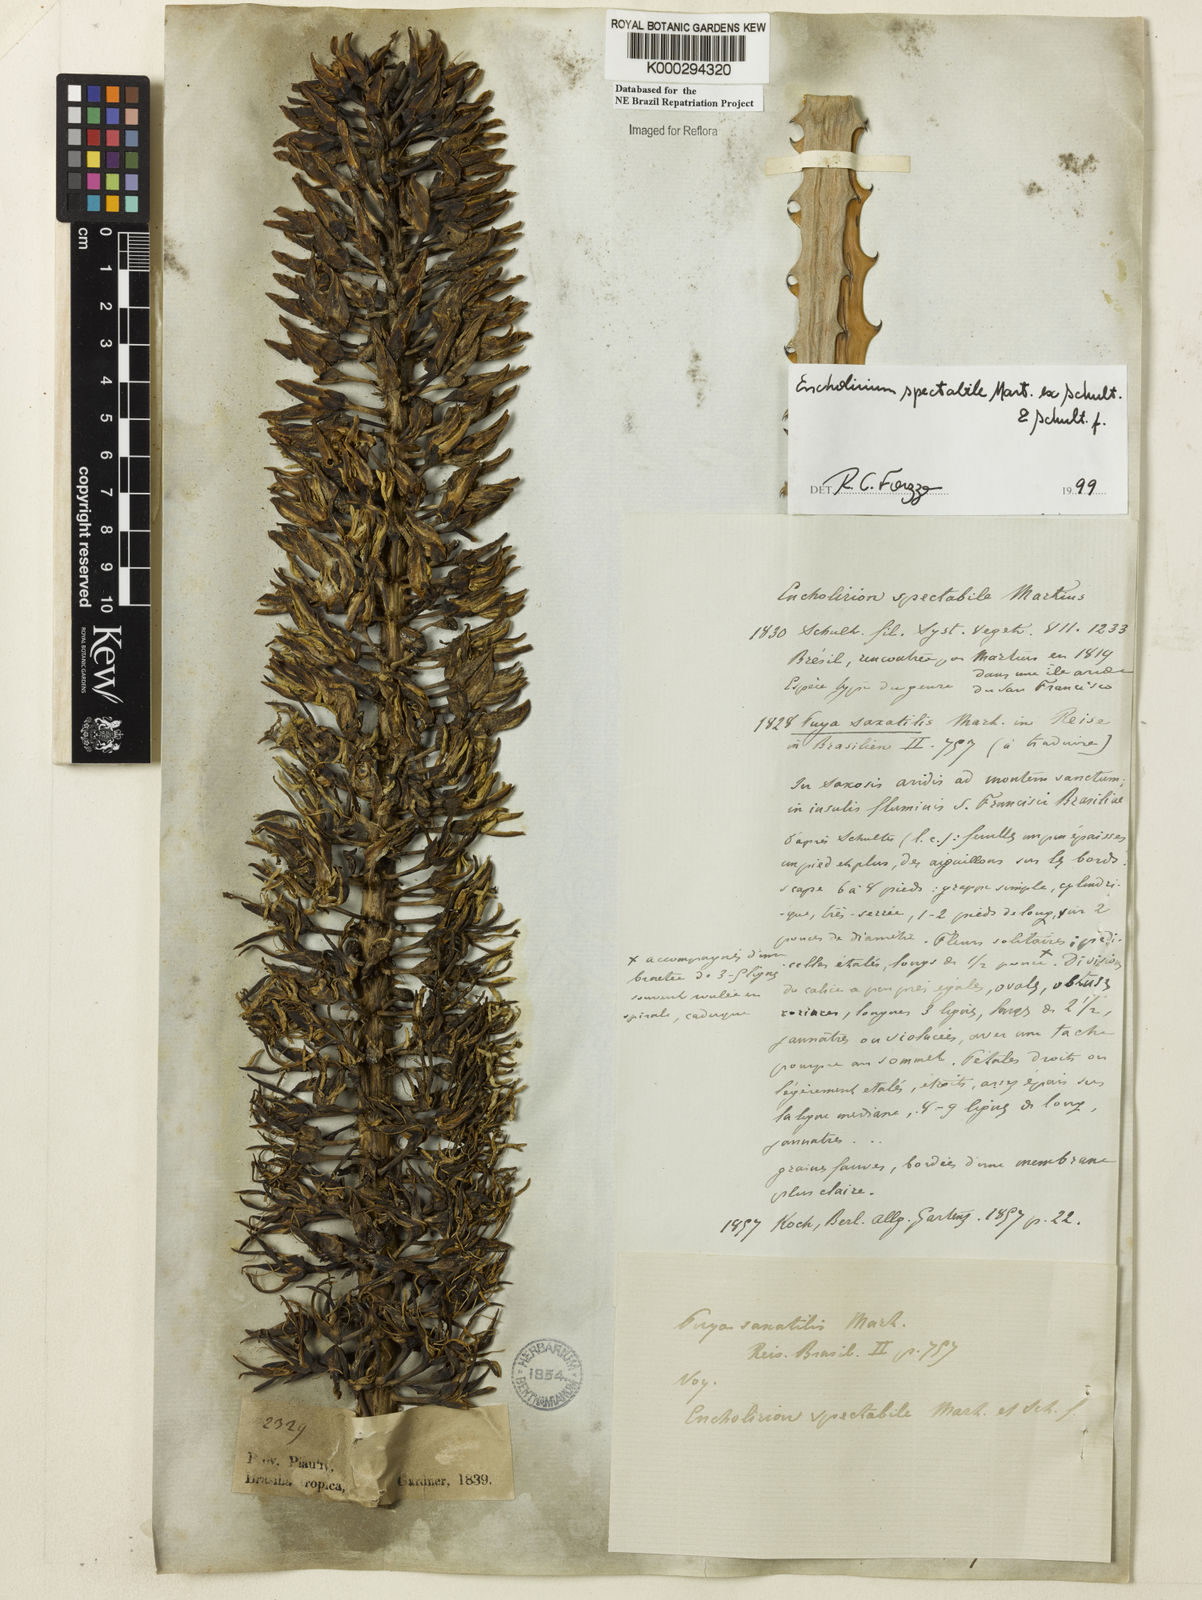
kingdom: Plantae
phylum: Tracheophyta
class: Liliopsida
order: Poales
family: Bromeliaceae
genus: Encholirium
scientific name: Encholirium spectabile
